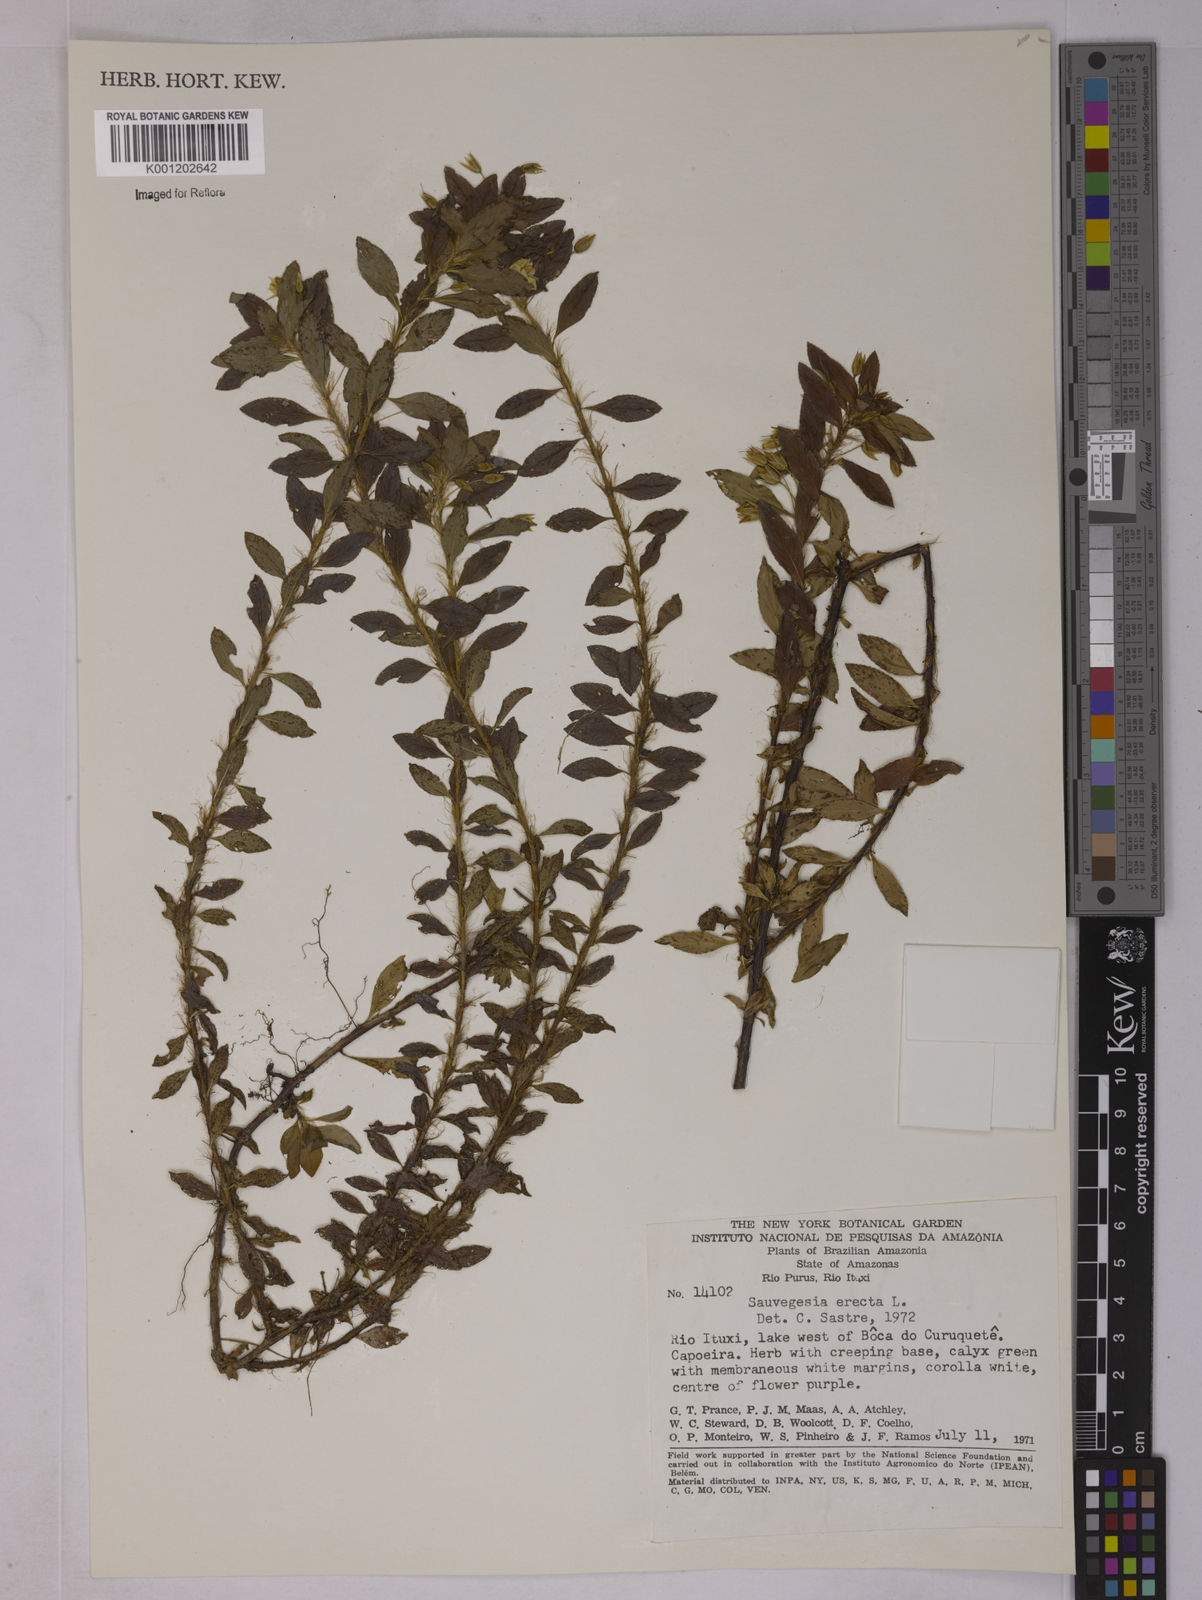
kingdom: Plantae
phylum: Tracheophyta
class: Magnoliopsida
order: Malpighiales
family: Ochnaceae
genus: Sauvagesia
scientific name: Sauvagesia erecta
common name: Creole tea
